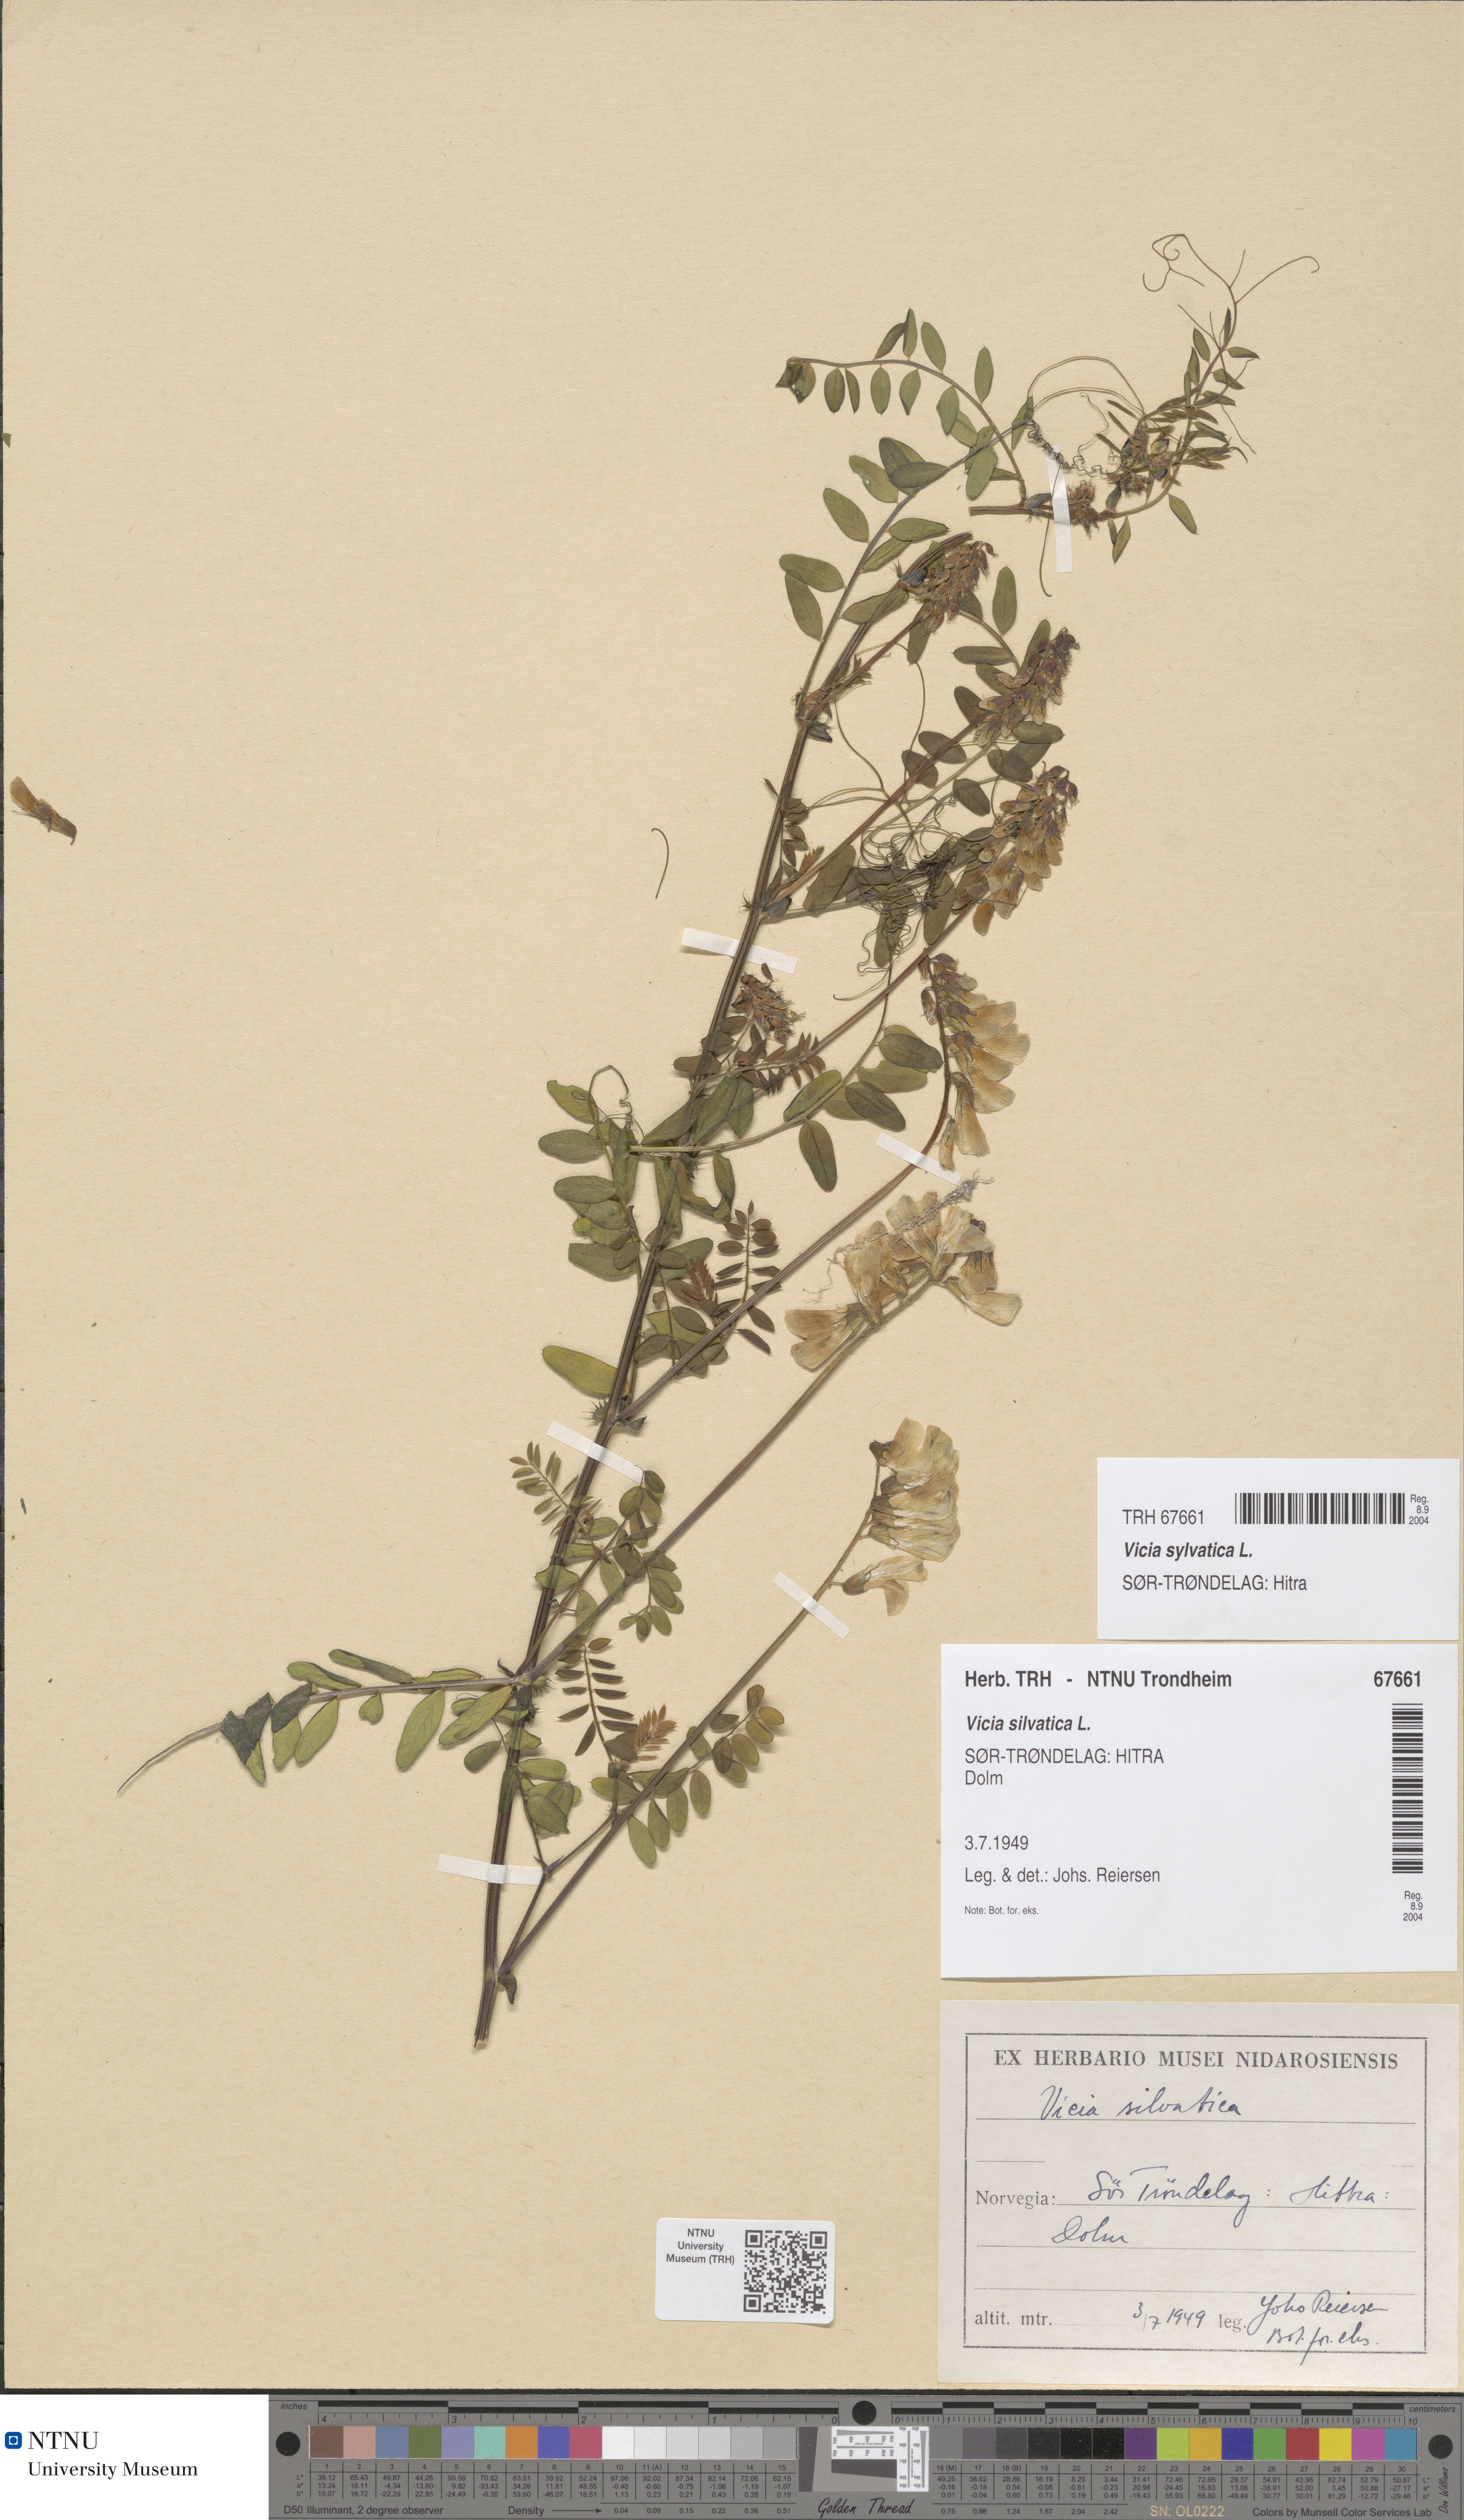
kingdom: Plantae
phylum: Tracheophyta
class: Magnoliopsida
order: Fabales
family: Fabaceae
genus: Vicia
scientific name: Vicia sylvatica
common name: Wood vetch
